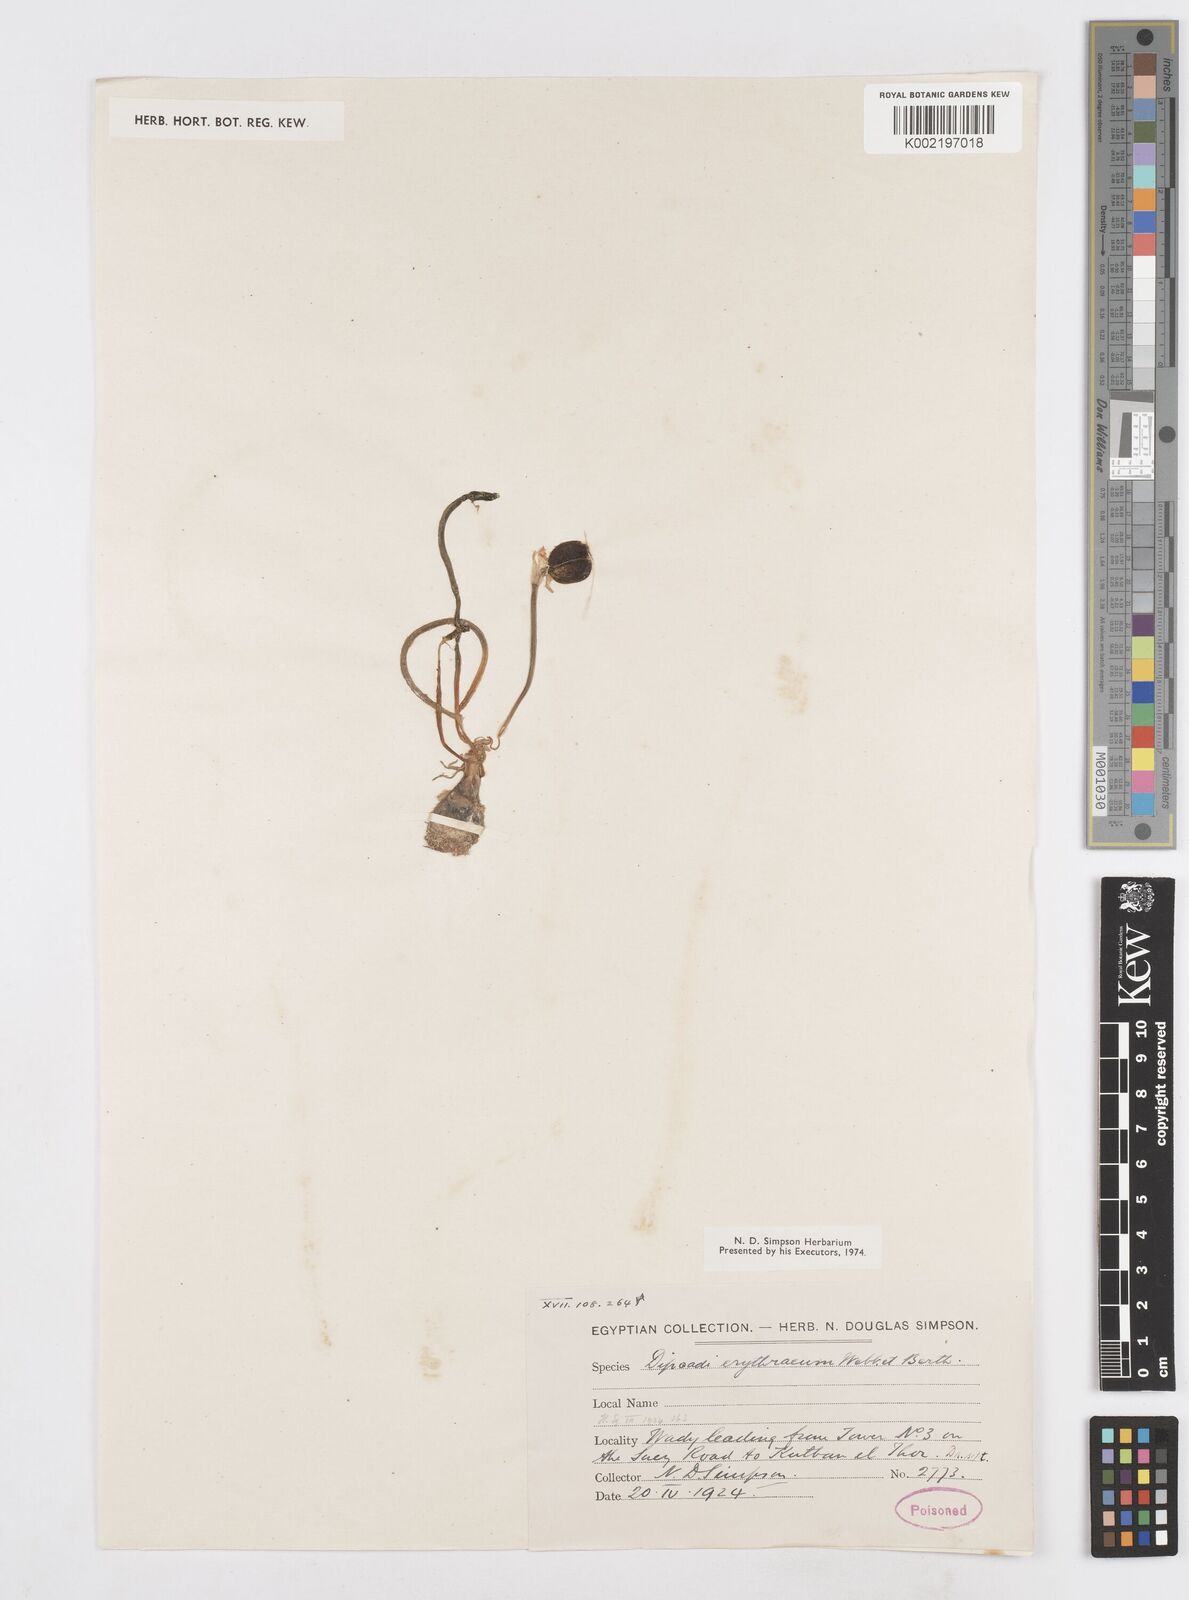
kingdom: Plantae
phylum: Tracheophyta
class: Liliopsida
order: Asparagales
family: Asparagaceae
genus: Dipcadi
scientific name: Dipcadi erythraeum
